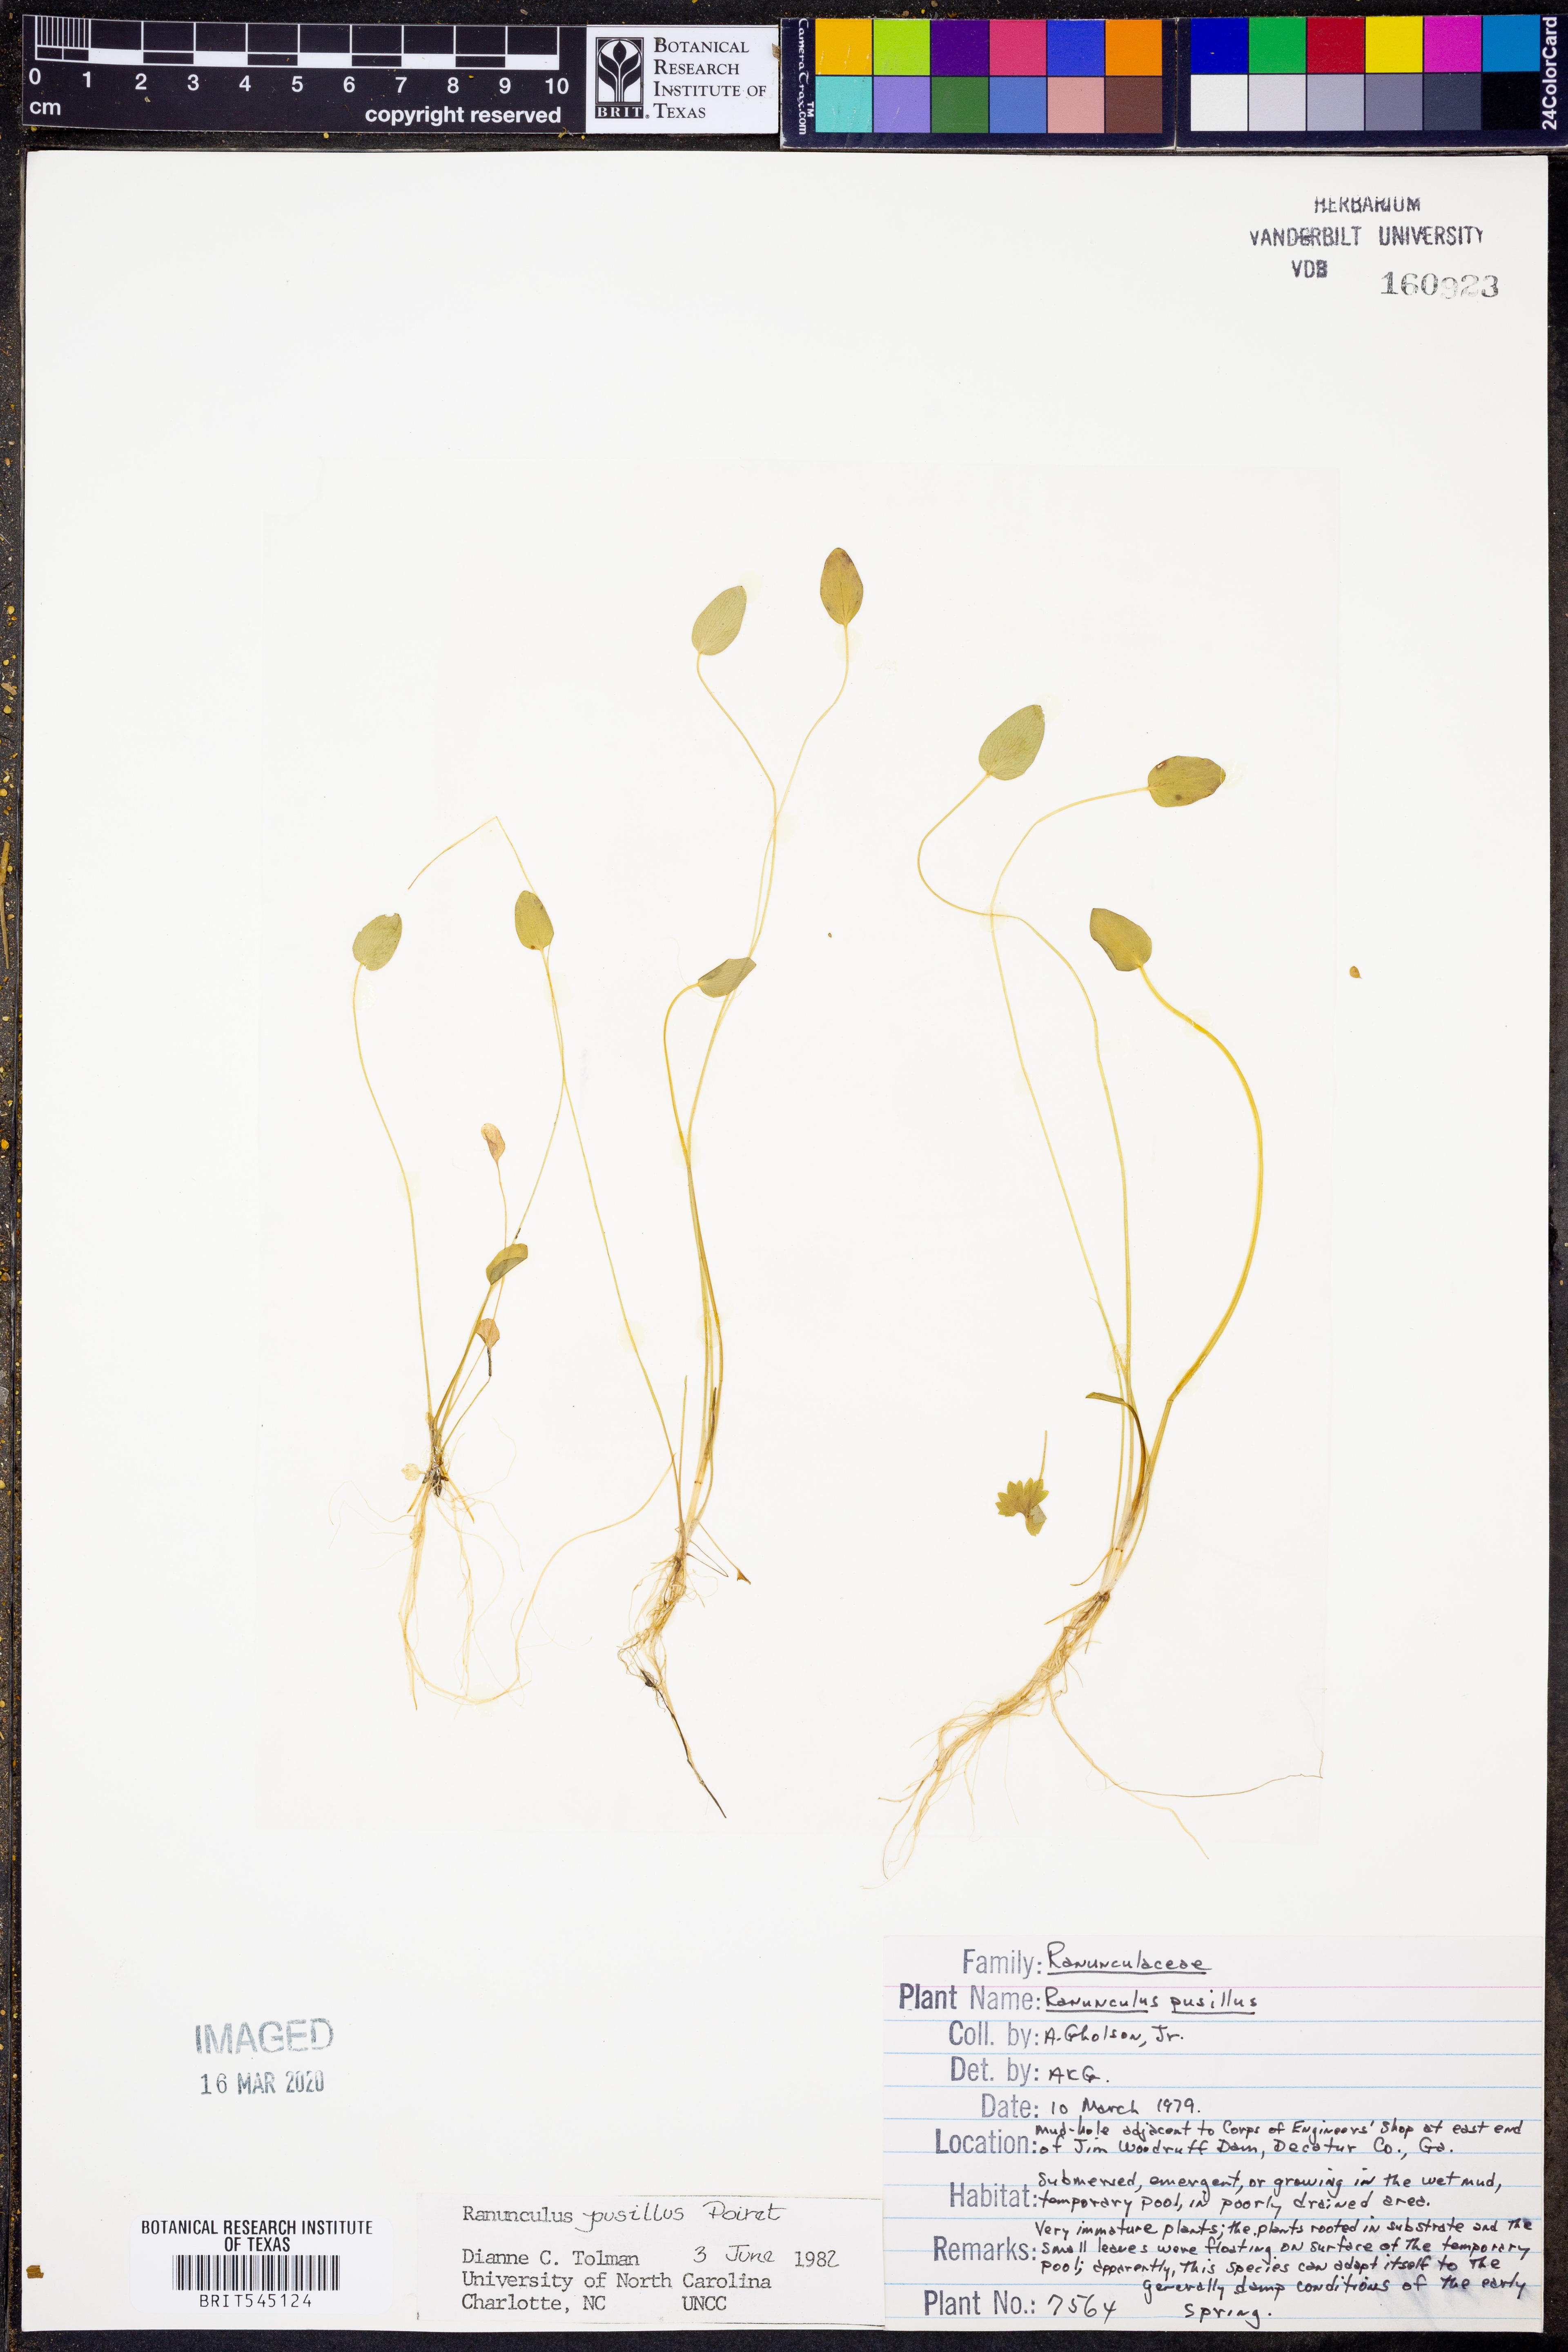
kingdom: Plantae
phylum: Tracheophyta
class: Magnoliopsida
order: Ranunculales
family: Ranunculaceae
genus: Ranunculus
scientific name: Ranunculus pusillus
